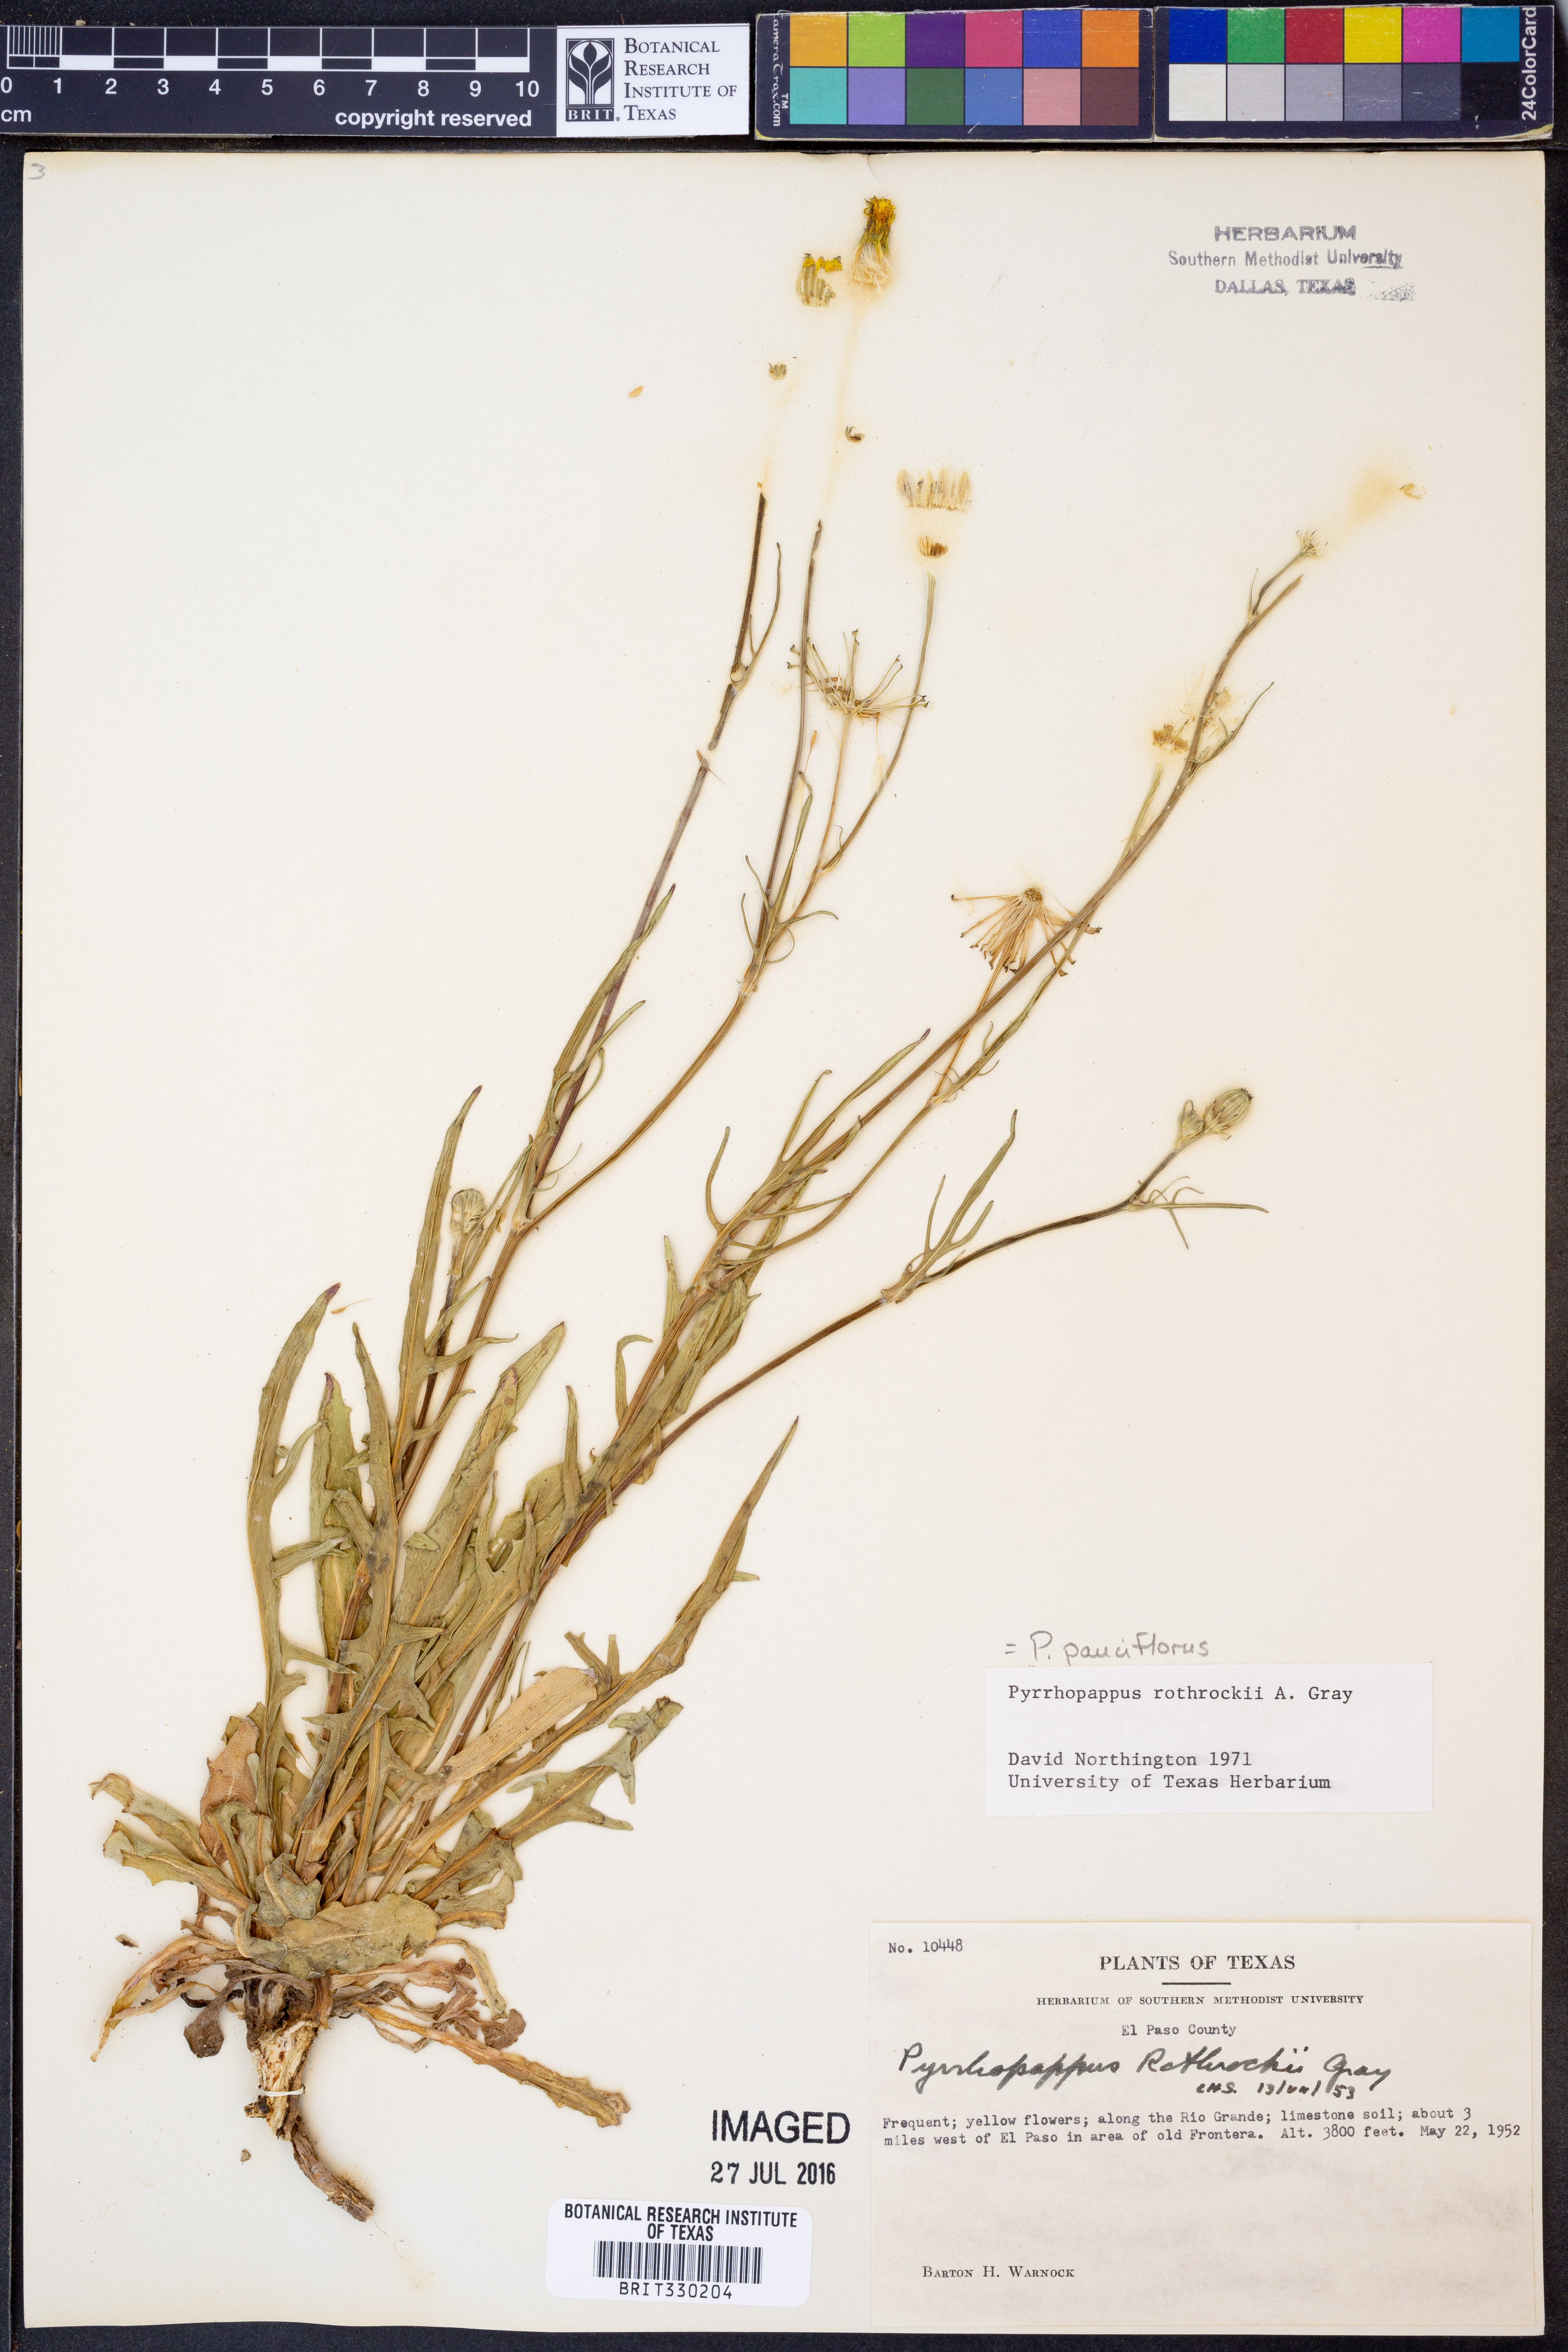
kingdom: Plantae
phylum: Tracheophyta
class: Magnoliopsida
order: Asterales
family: Asteraceae
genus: Pyrrhopappus
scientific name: Pyrrhopappus pauciflorus
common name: Texas false dandelion
